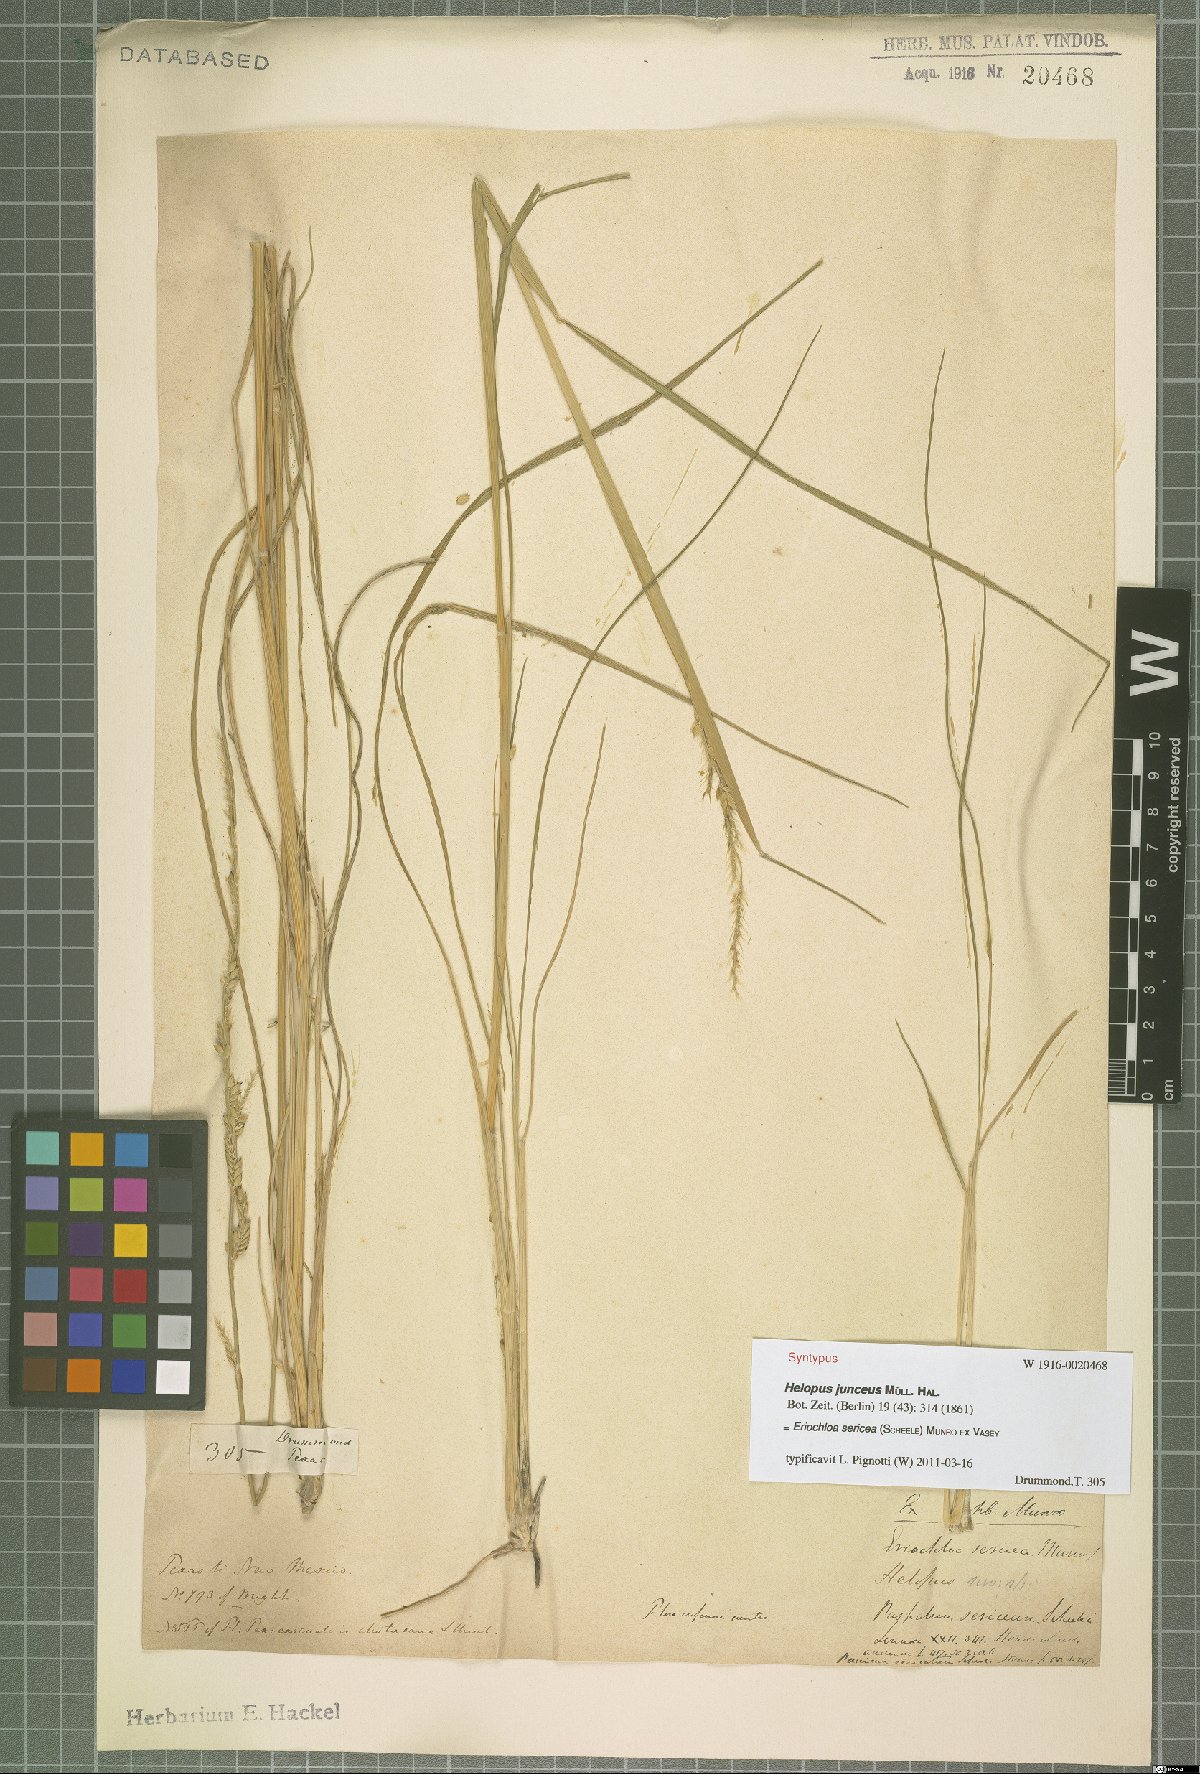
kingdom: Plantae
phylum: Tracheophyta
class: Liliopsida
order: Poales
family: Poaceae
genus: Eriochloa
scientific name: Eriochloa sericea
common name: Texas cup grass
